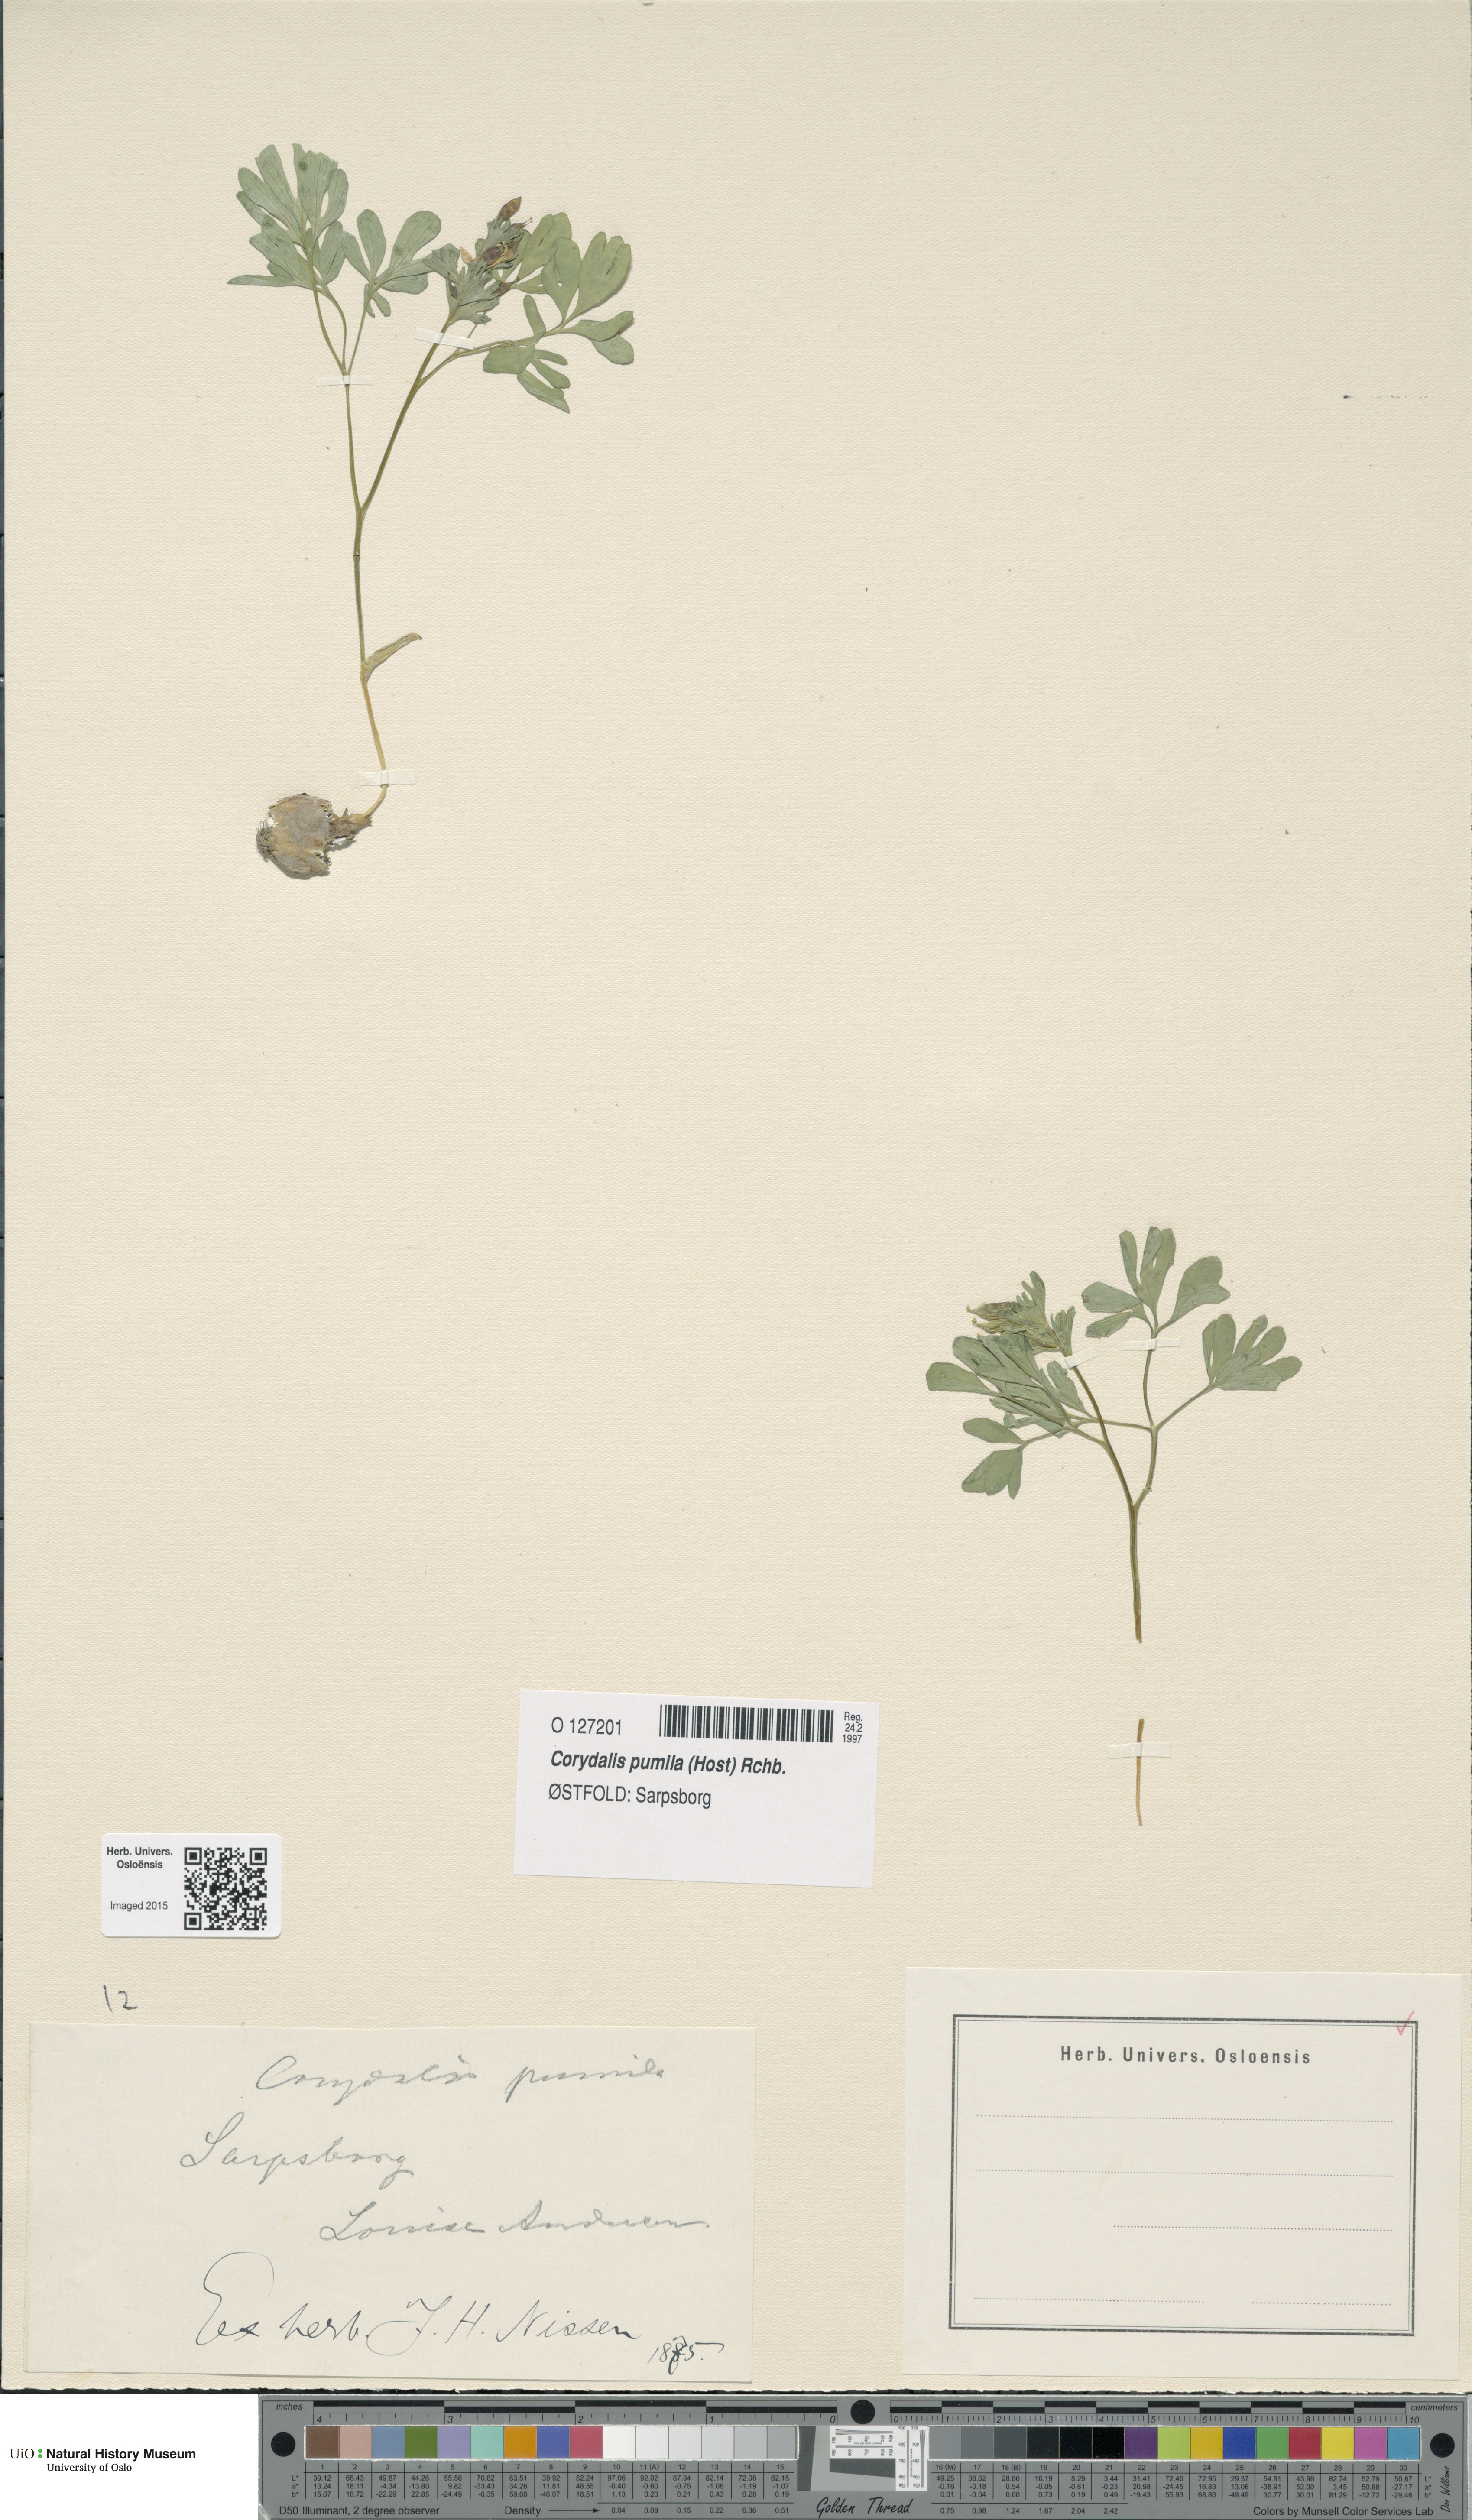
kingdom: Plantae
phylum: Tracheophyta
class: Magnoliopsida
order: Ranunculales
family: Papaveraceae
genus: Corydalis
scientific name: Corydalis pumila
